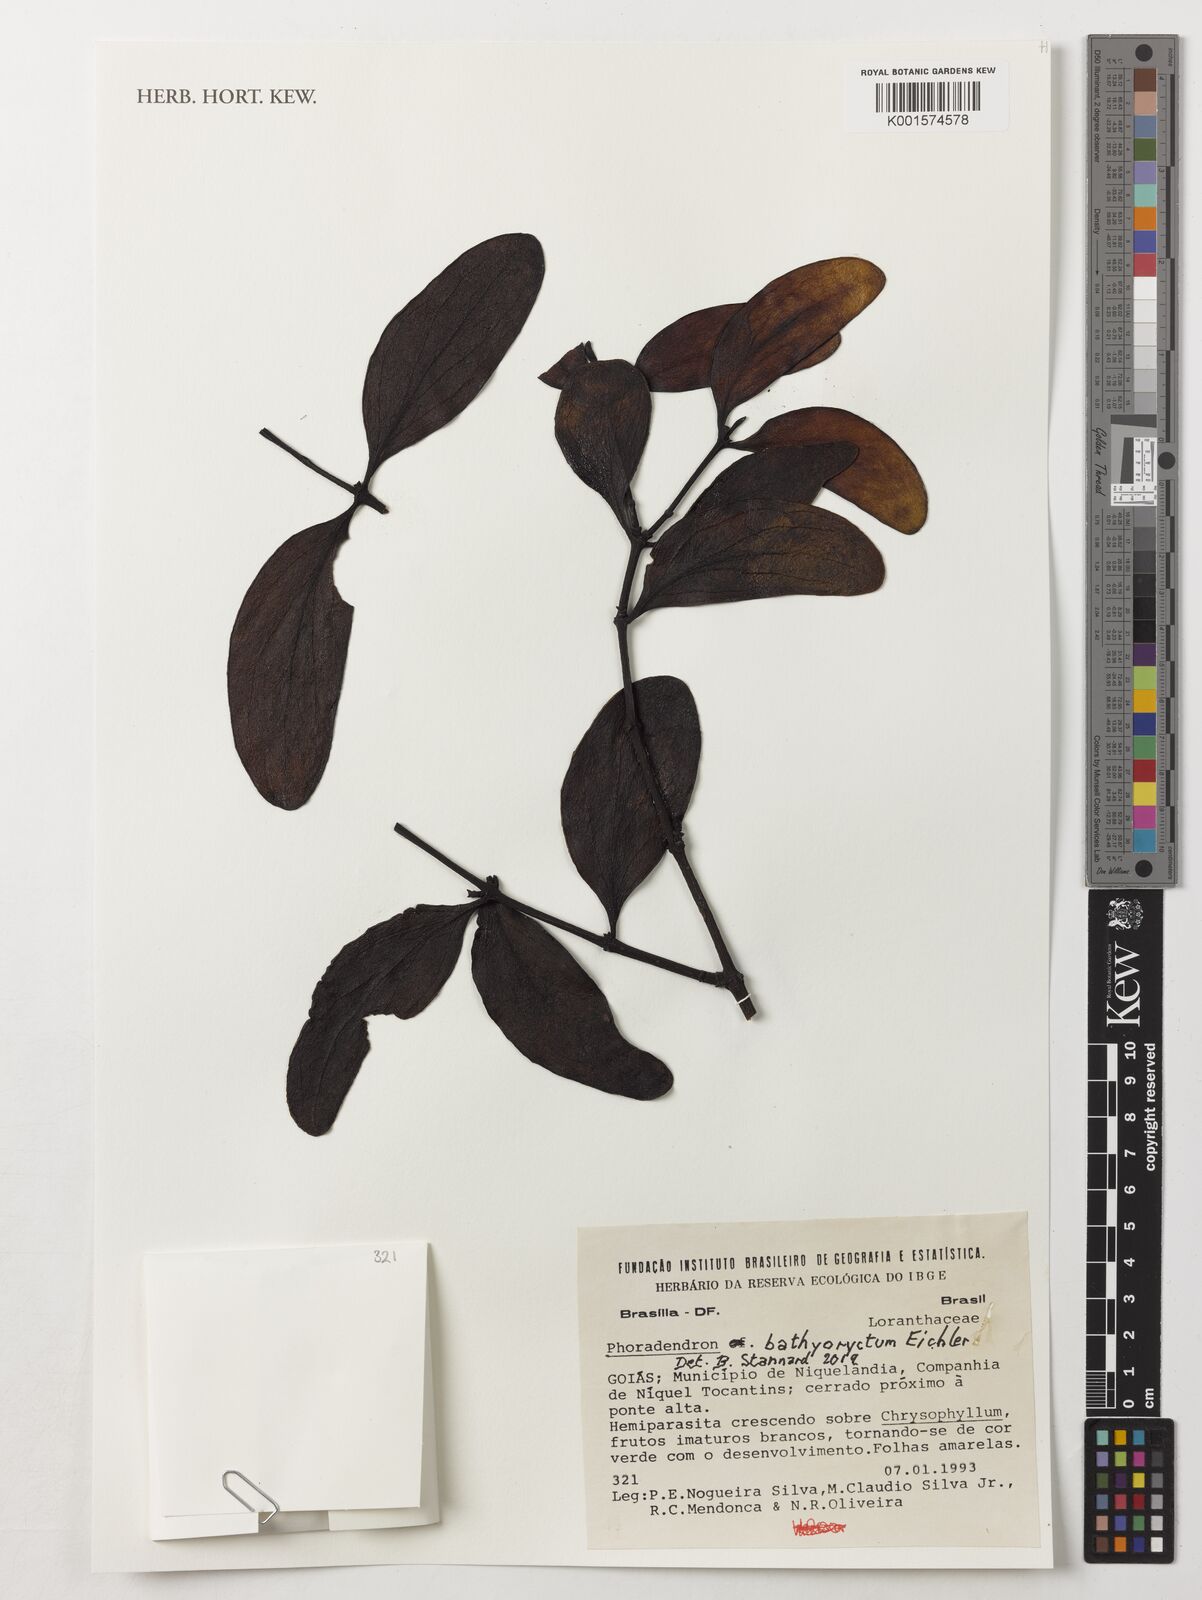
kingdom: Plantae
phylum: Tracheophyta
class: Magnoliopsida
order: Santalales
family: Viscaceae
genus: Phoradendron
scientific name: Phoradendron bathyoryctum
